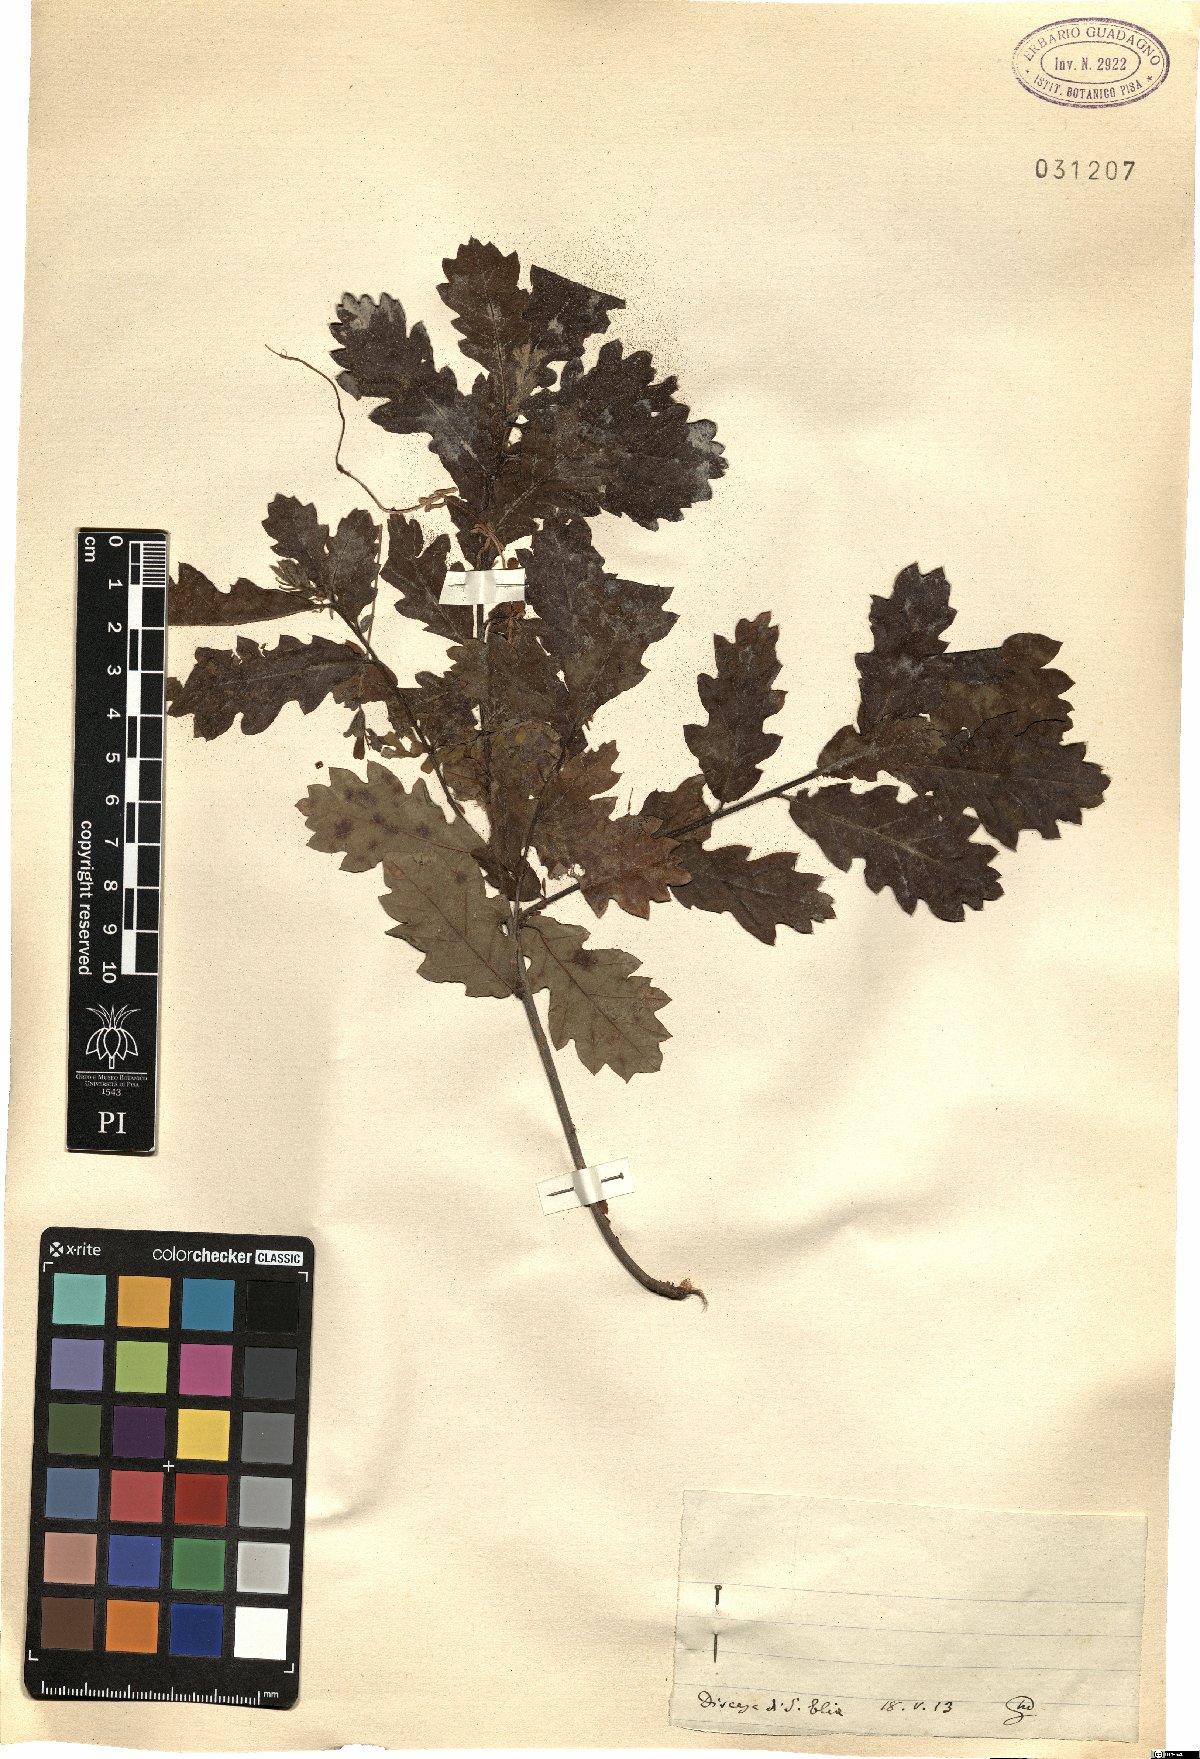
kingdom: Plantae
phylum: Tracheophyta
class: Magnoliopsida
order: Fagales
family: Fagaceae
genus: Quercus
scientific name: Quercus
